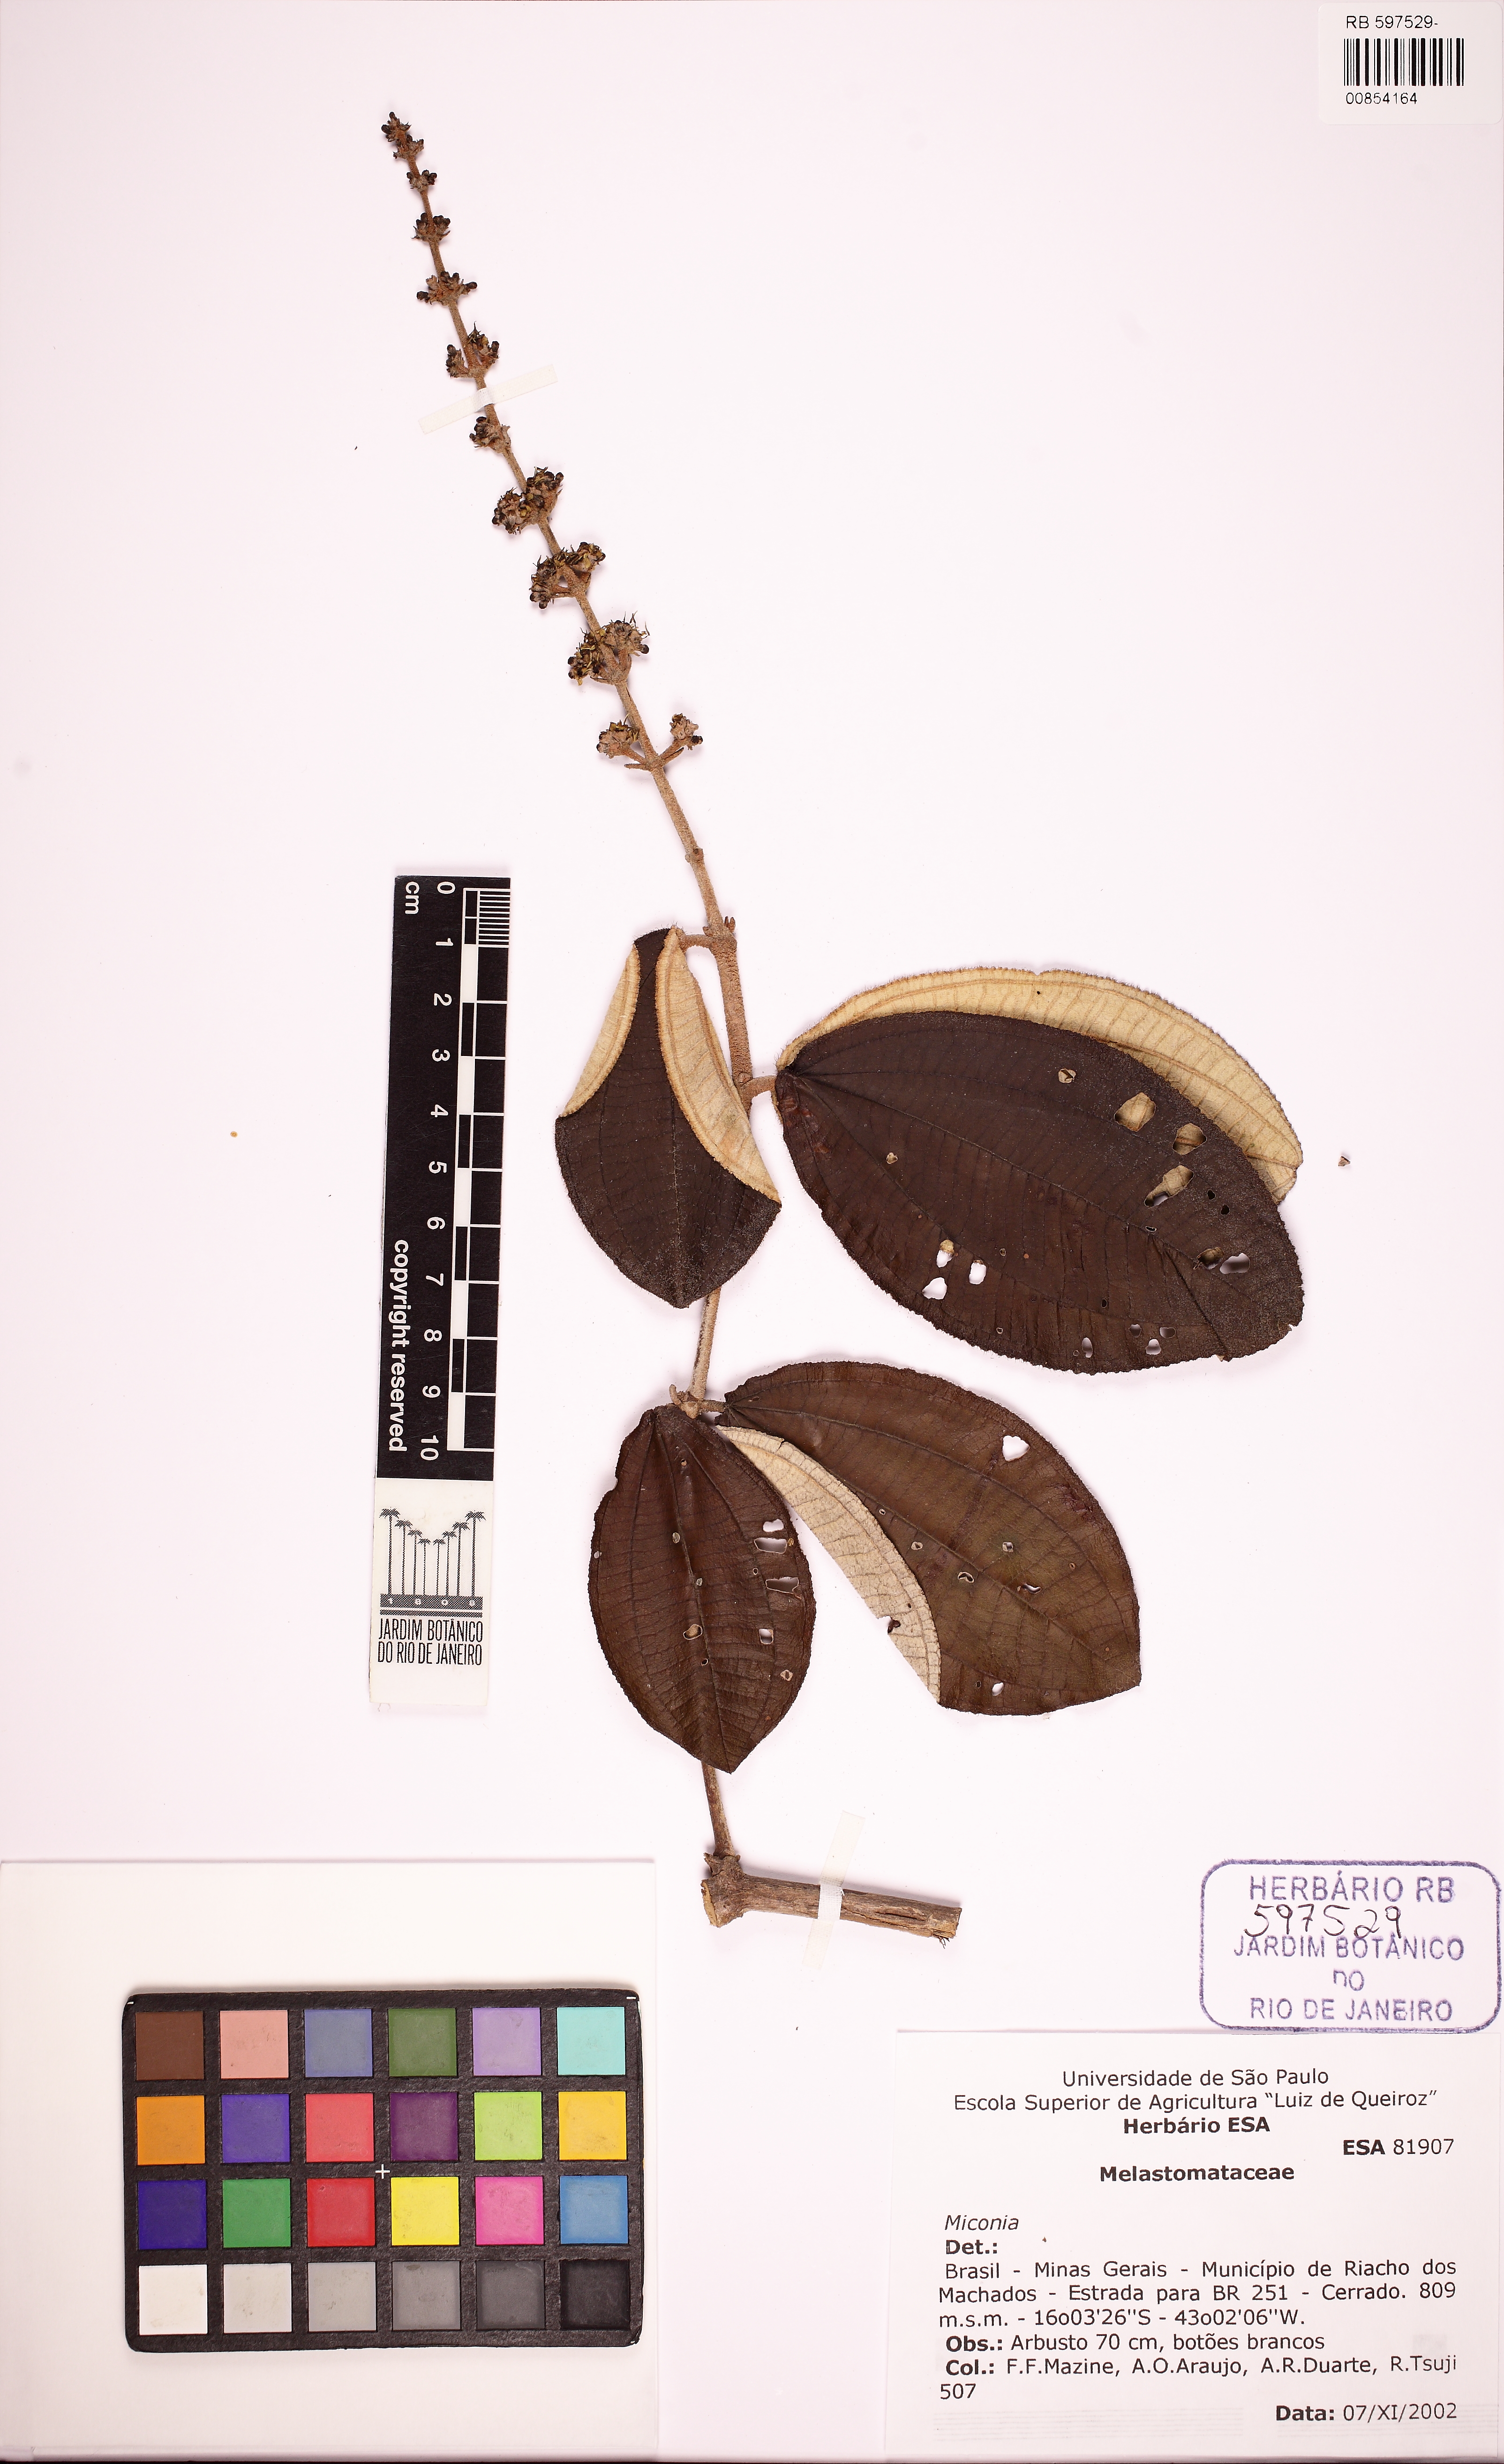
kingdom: Plantae
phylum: Tracheophyta
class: Magnoliopsida
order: Myrtales
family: Melastomataceae
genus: Miconia
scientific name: Miconia macrothyrsa
